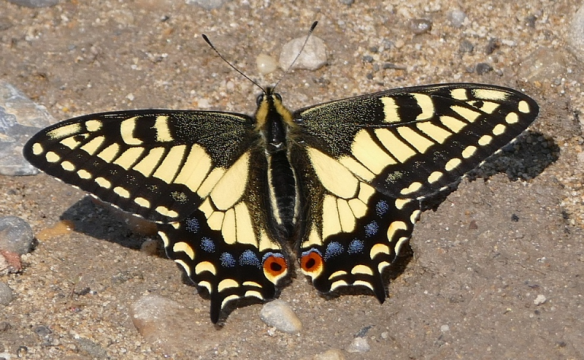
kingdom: Animalia
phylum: Arthropoda
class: Insecta
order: Lepidoptera
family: Papilionidae
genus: Papilio
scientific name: Papilio zelicaon
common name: Anise Swallowtail
